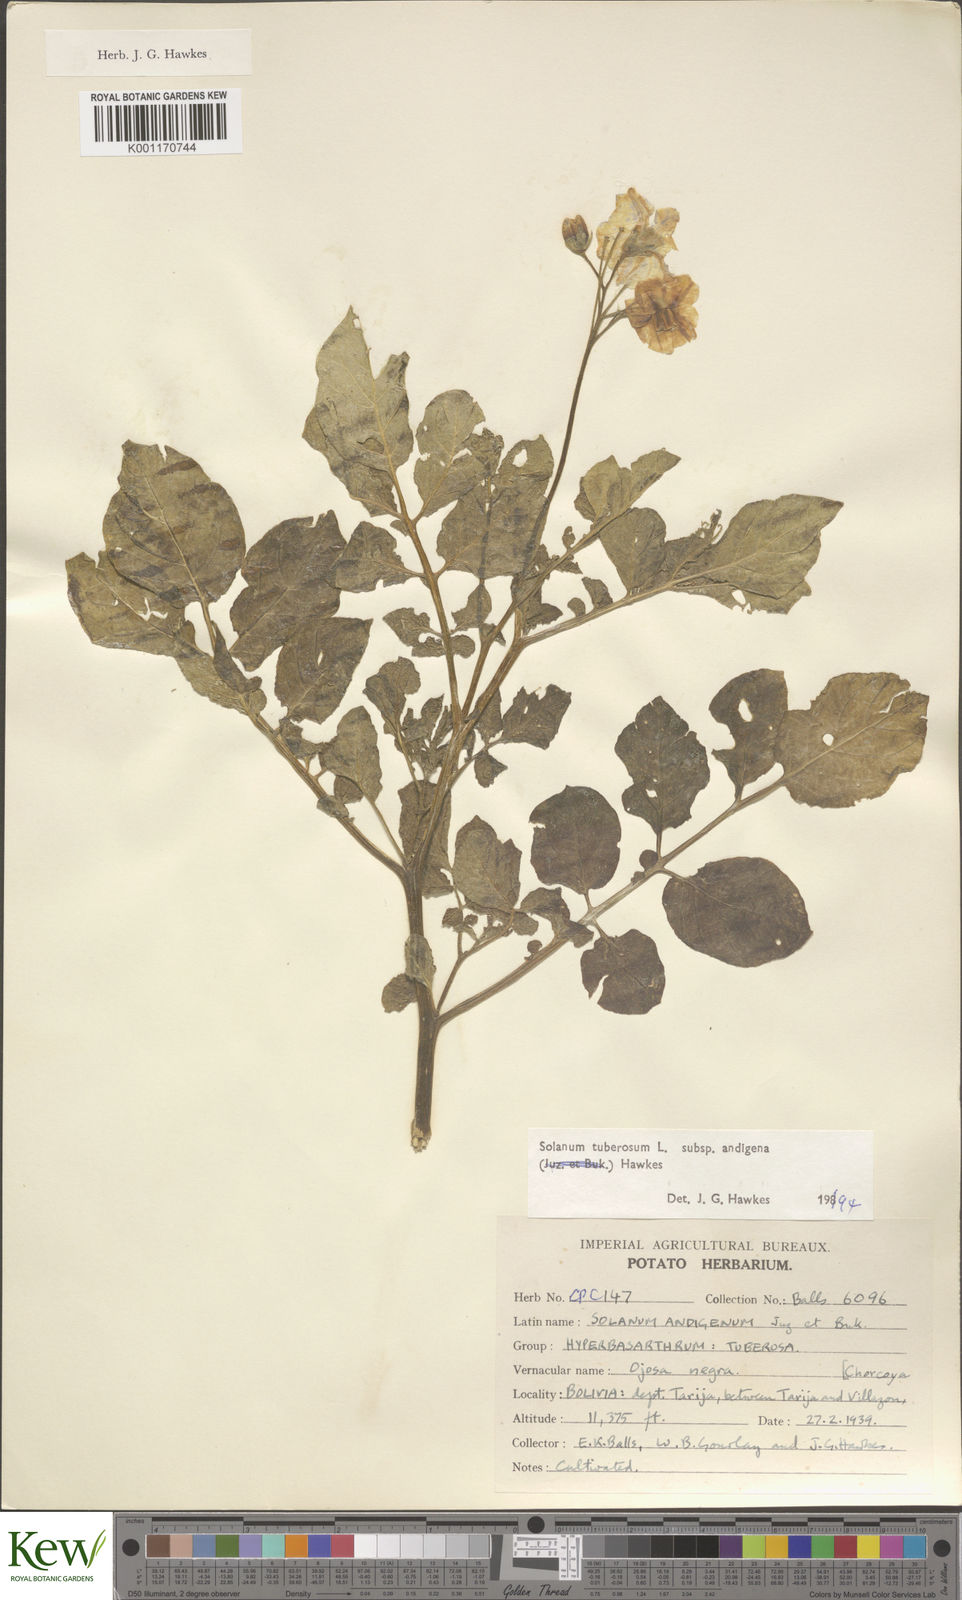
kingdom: Plantae
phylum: Tracheophyta
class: Magnoliopsida
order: Solanales
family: Solanaceae
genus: Solanum
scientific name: Solanum tuberosum
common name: Potato
